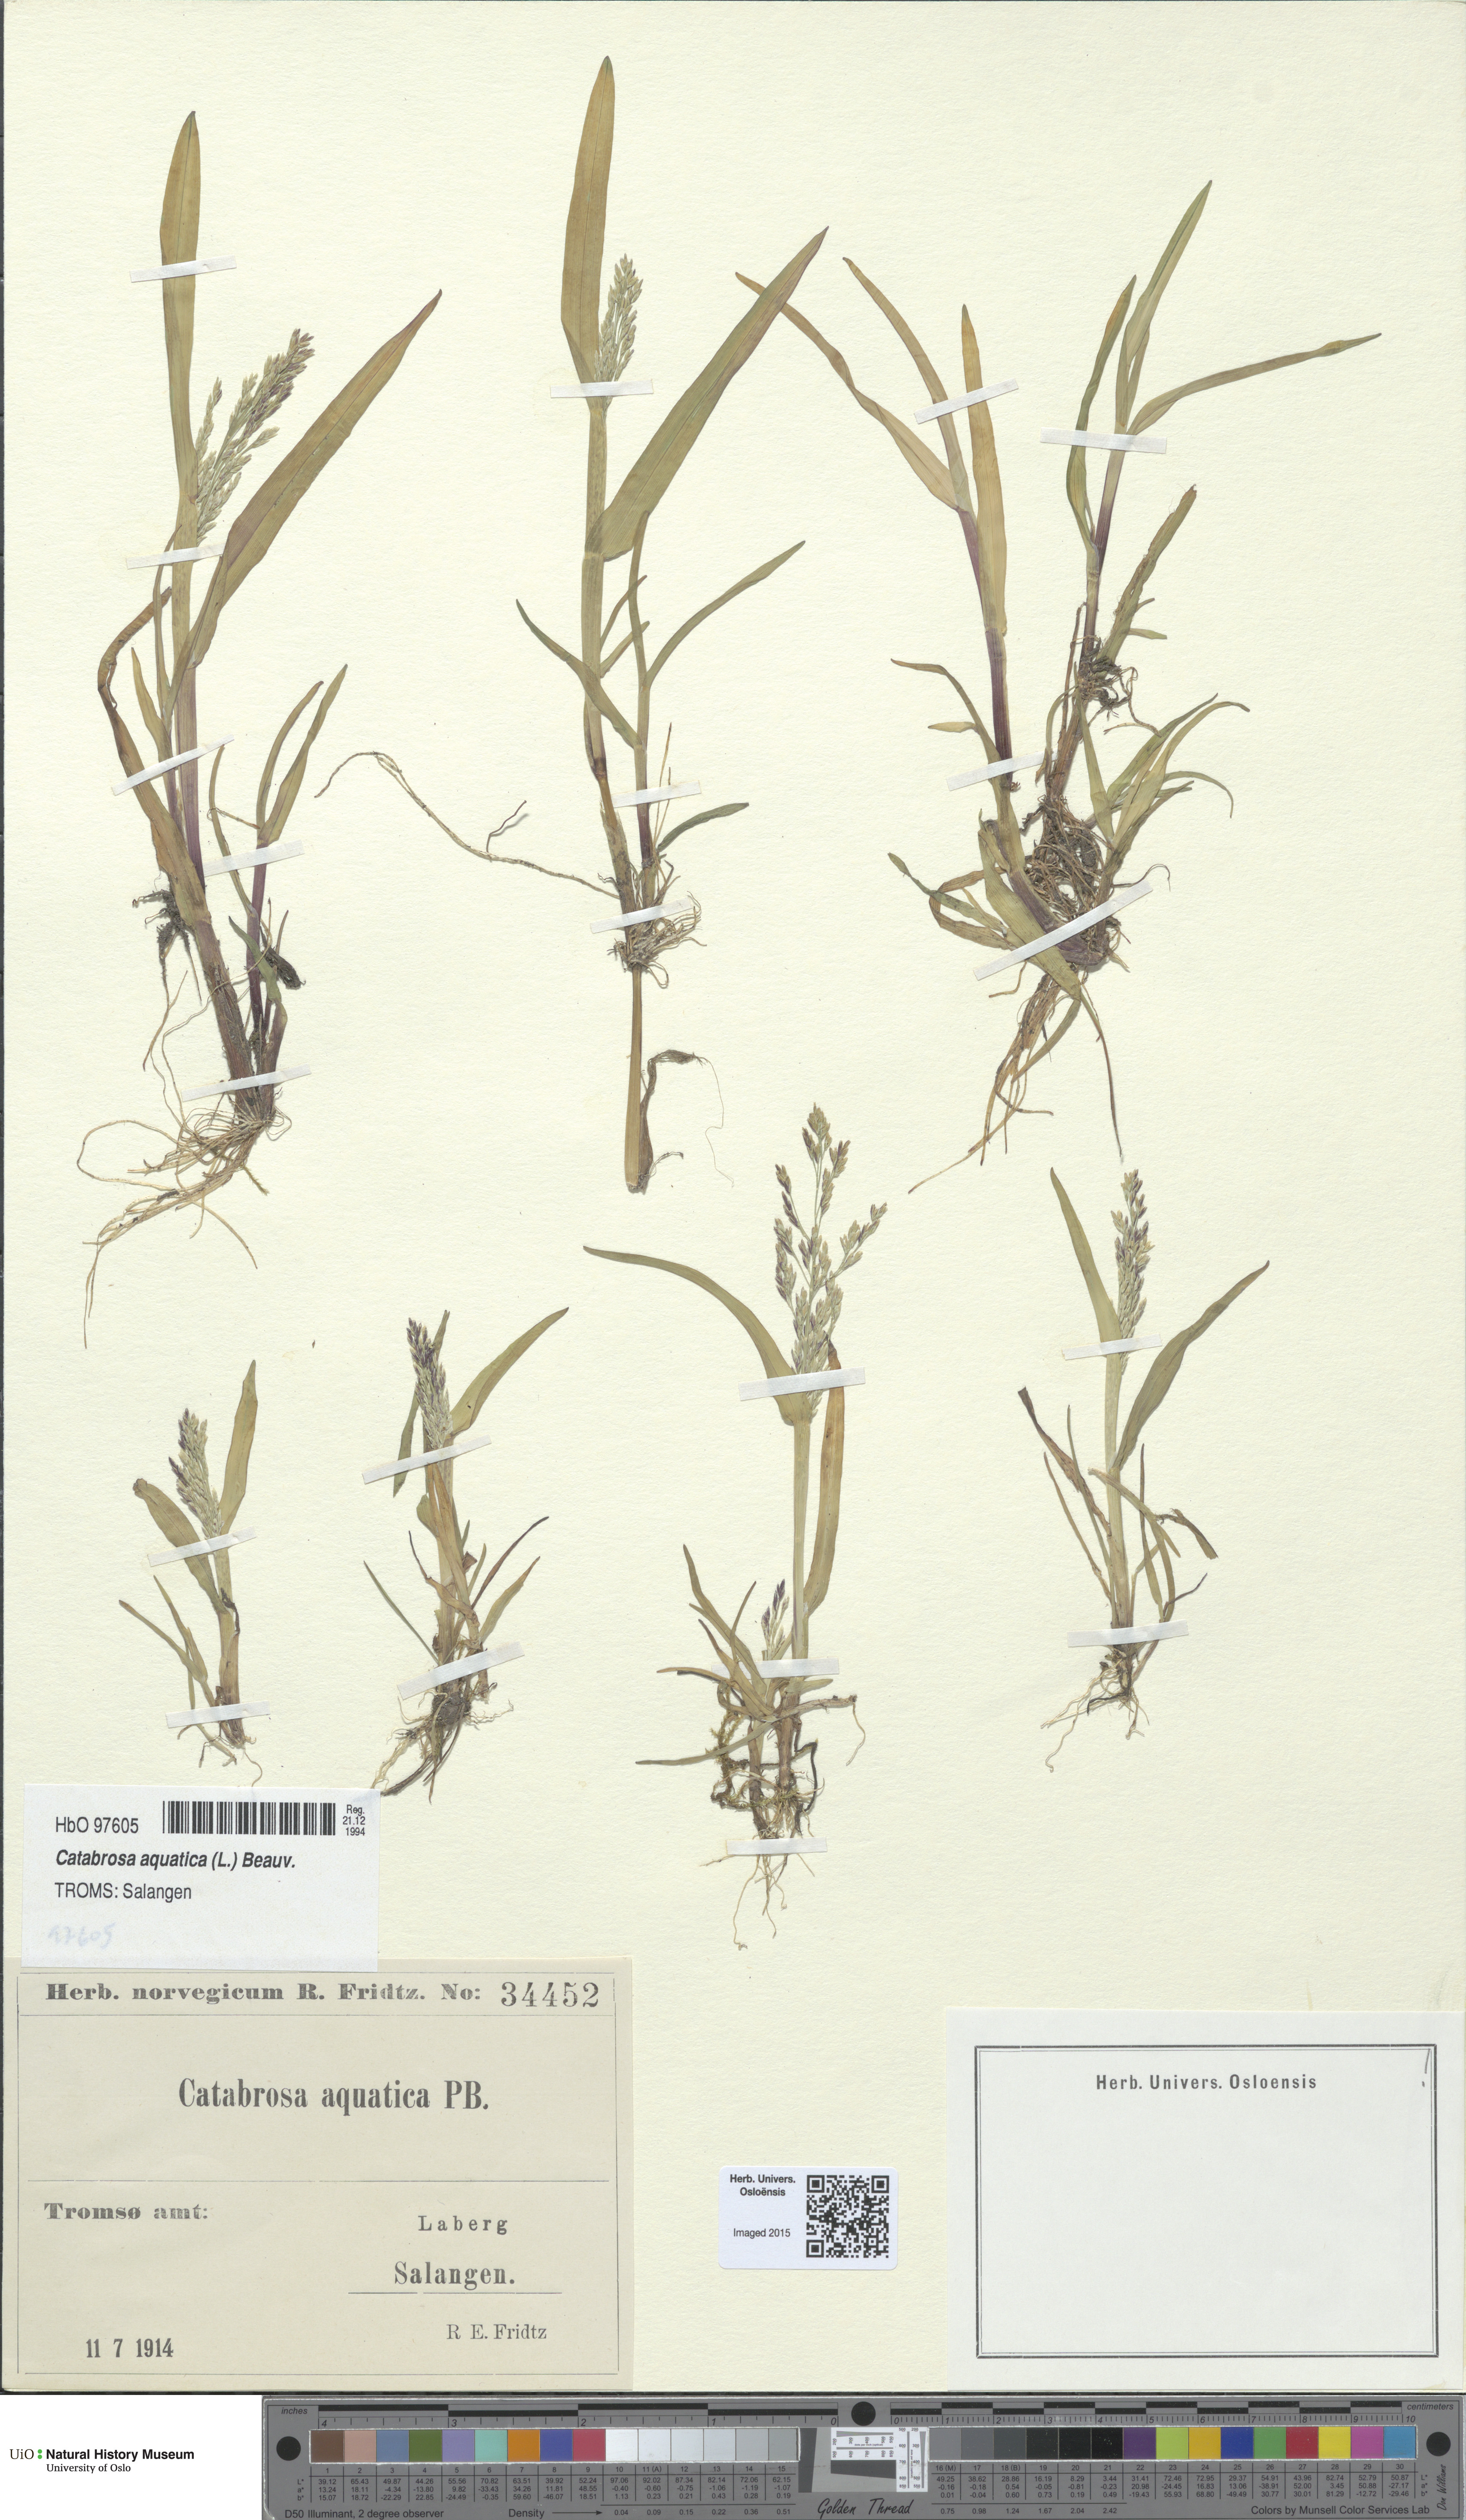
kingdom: Plantae
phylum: Tracheophyta
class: Liliopsida
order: Poales
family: Poaceae
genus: Catabrosa
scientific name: Catabrosa aquatica
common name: Whorl-grass
